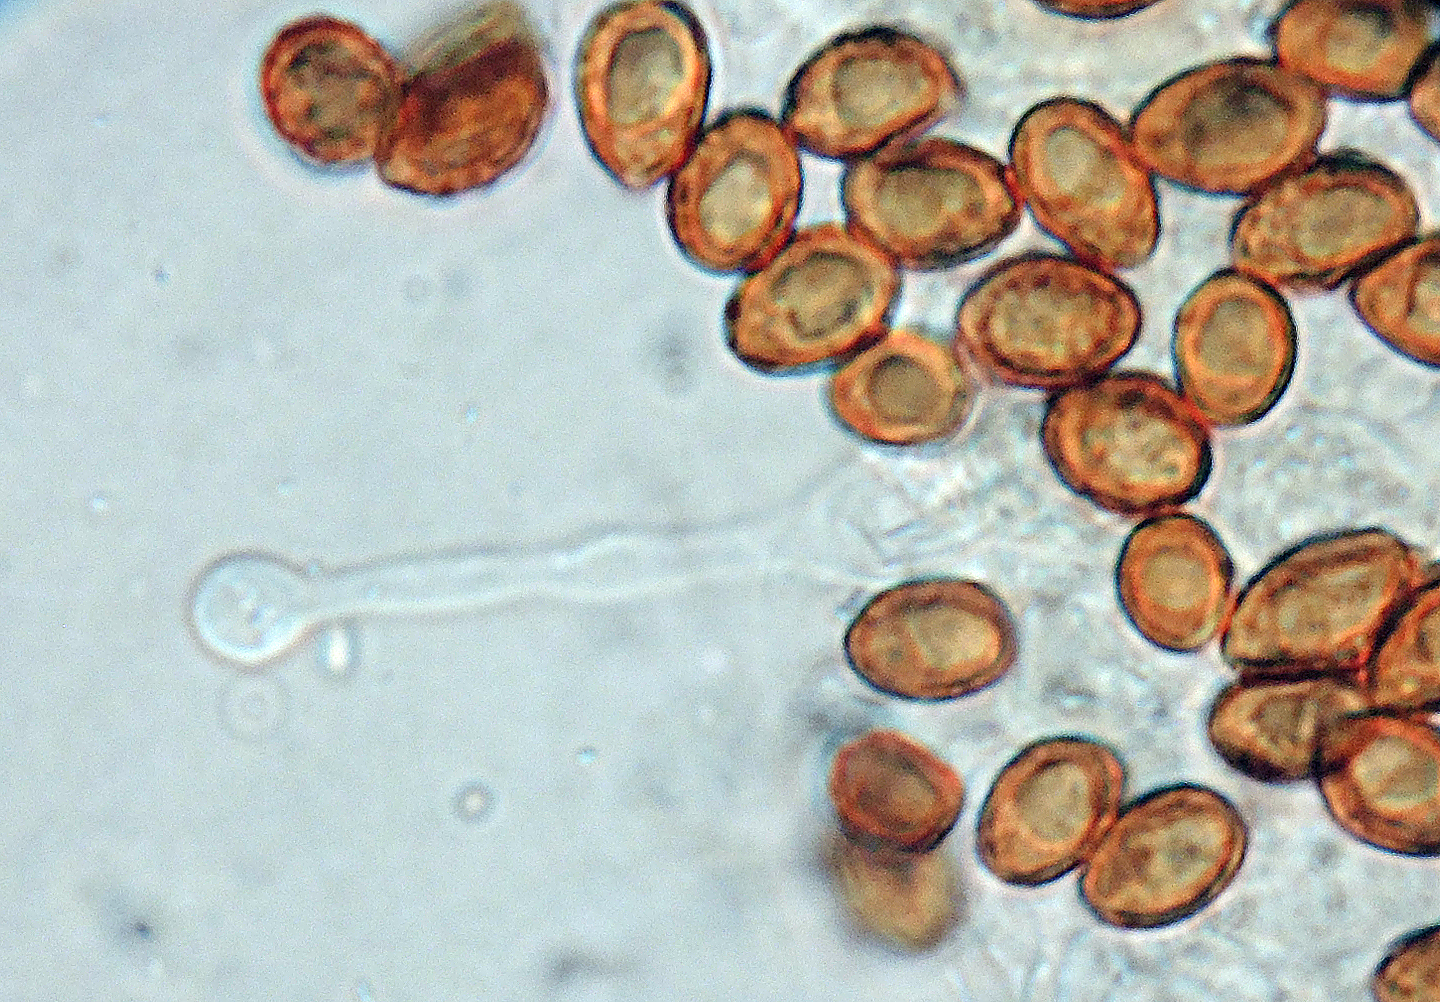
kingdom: Fungi
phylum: Basidiomycota
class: Agaricomycetes
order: Agaricales
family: Hymenogastraceae
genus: Galerina
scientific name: Galerina marginata
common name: randbæltet hjelmhat
